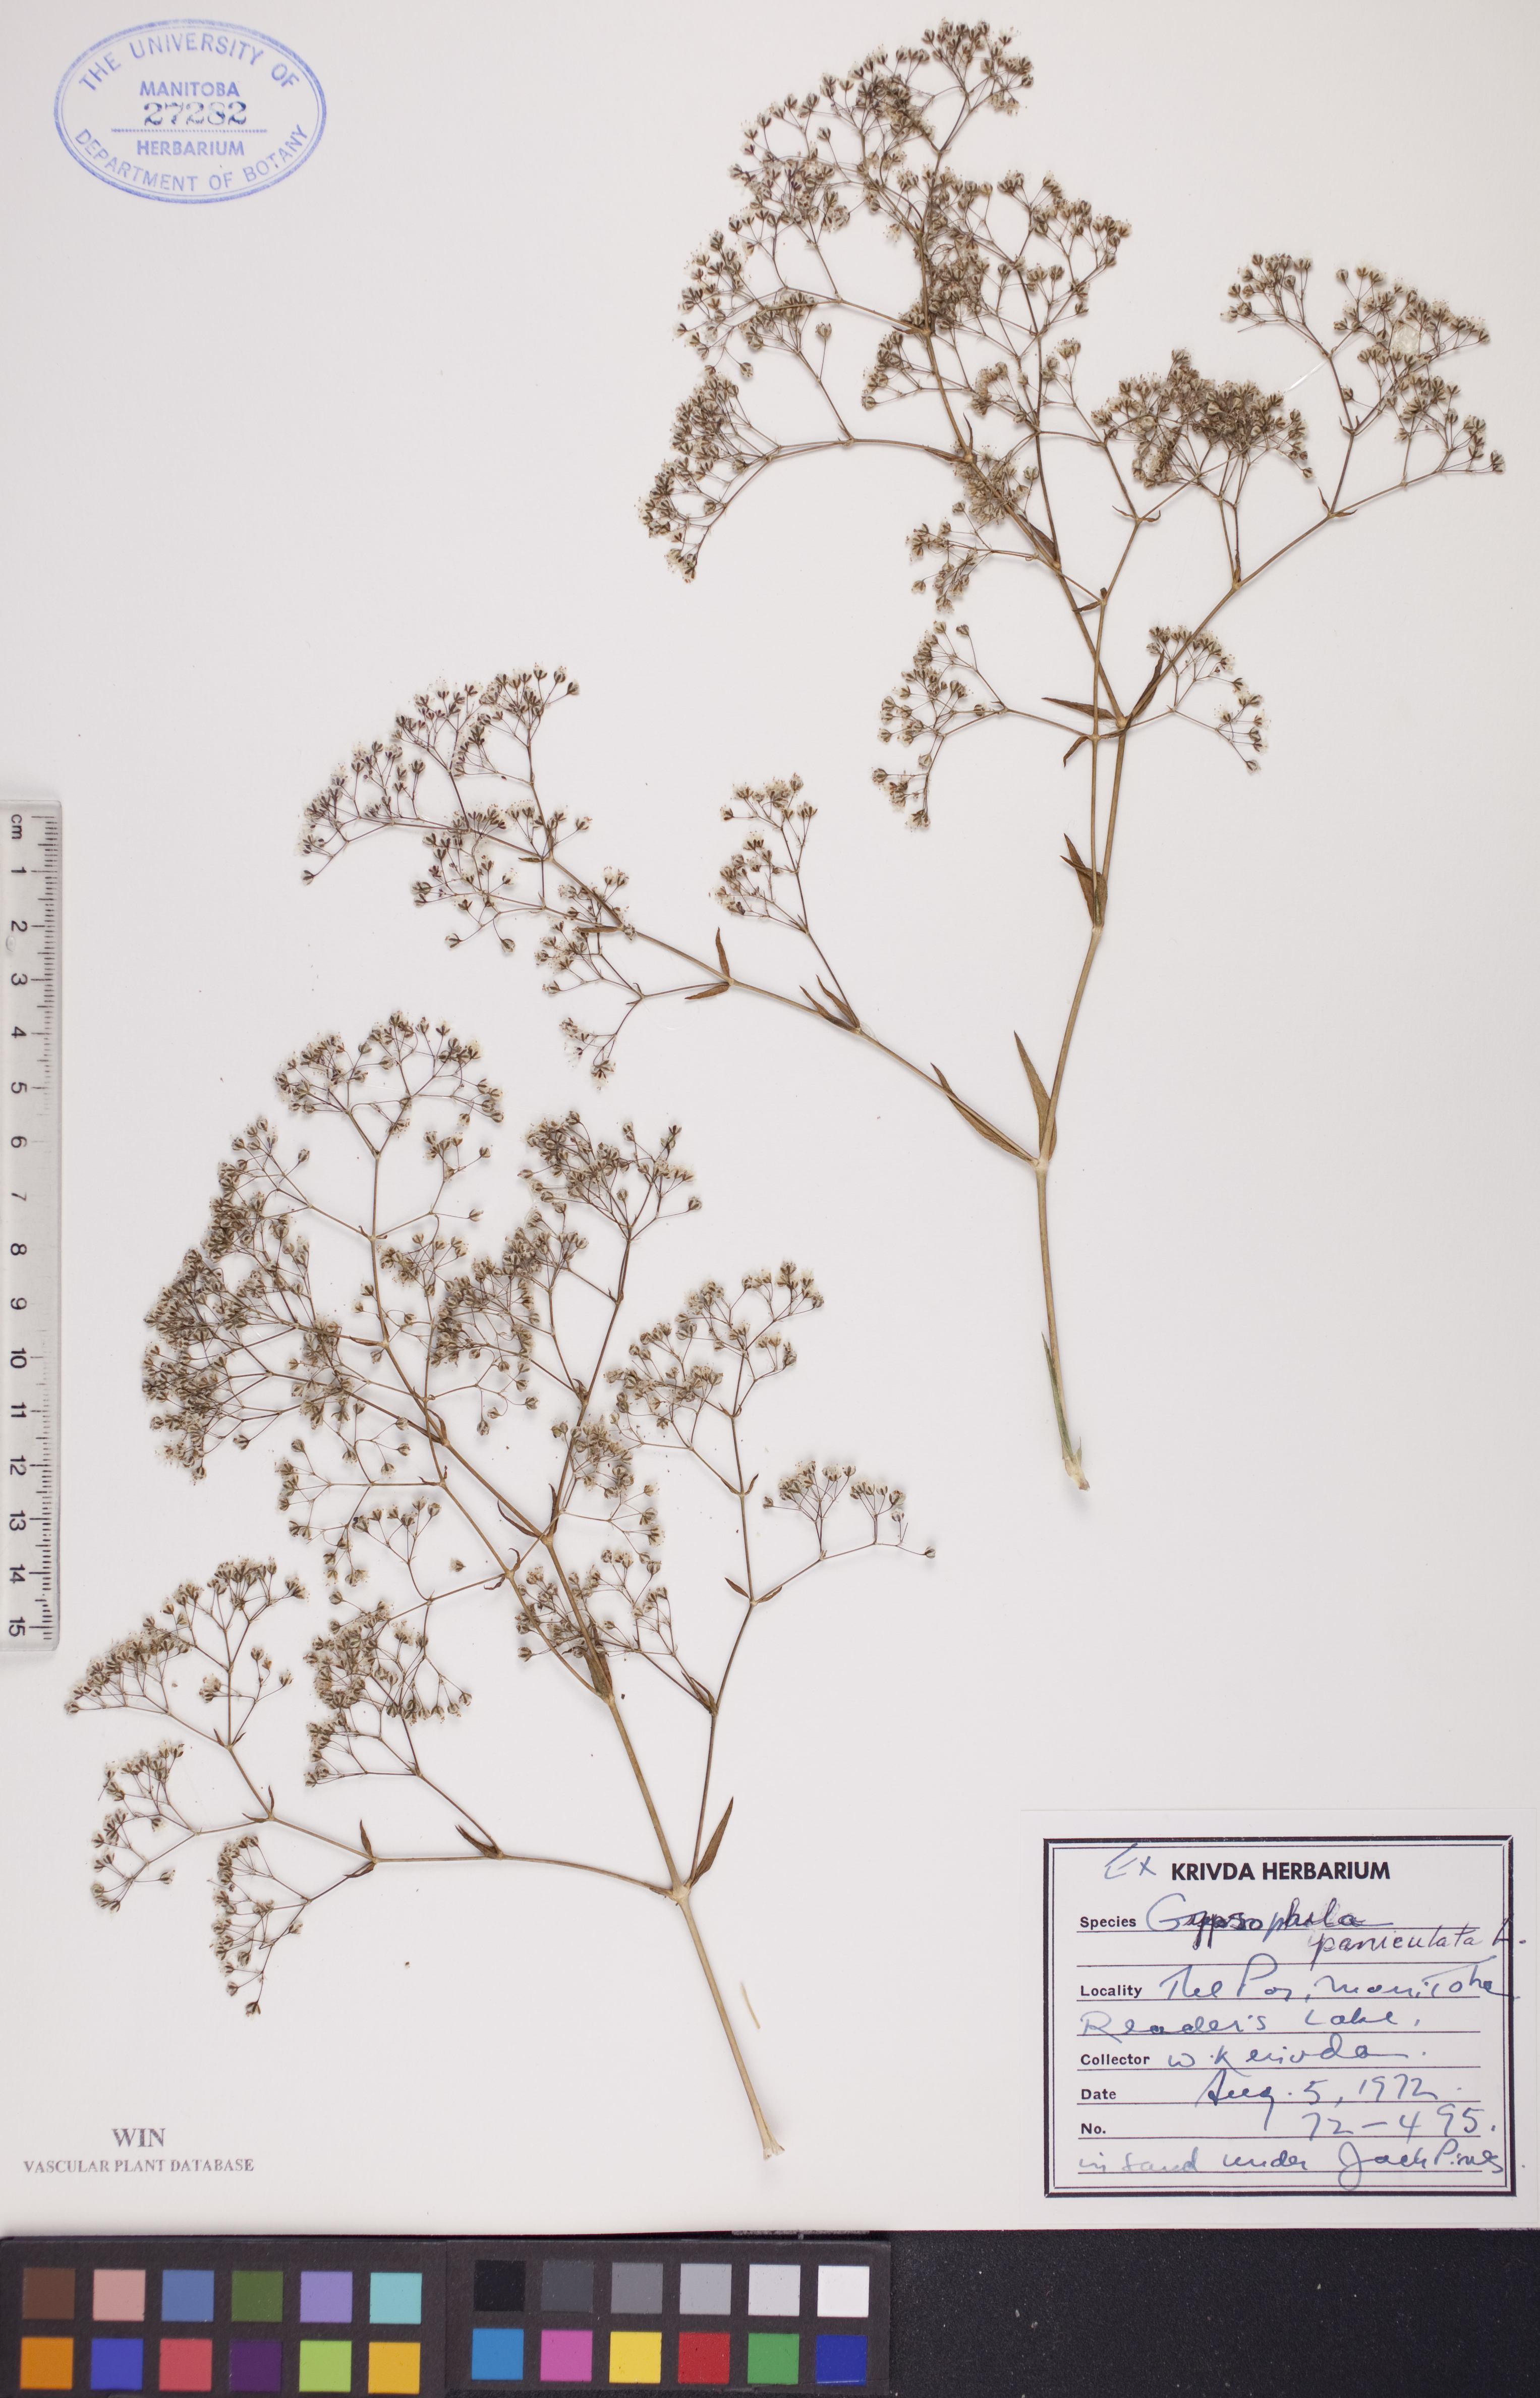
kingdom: Plantae
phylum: Tracheophyta
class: Magnoliopsida
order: Caryophyllales
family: Caryophyllaceae
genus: Gypsophila
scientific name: Gypsophila paniculata
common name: Baby's-breath
